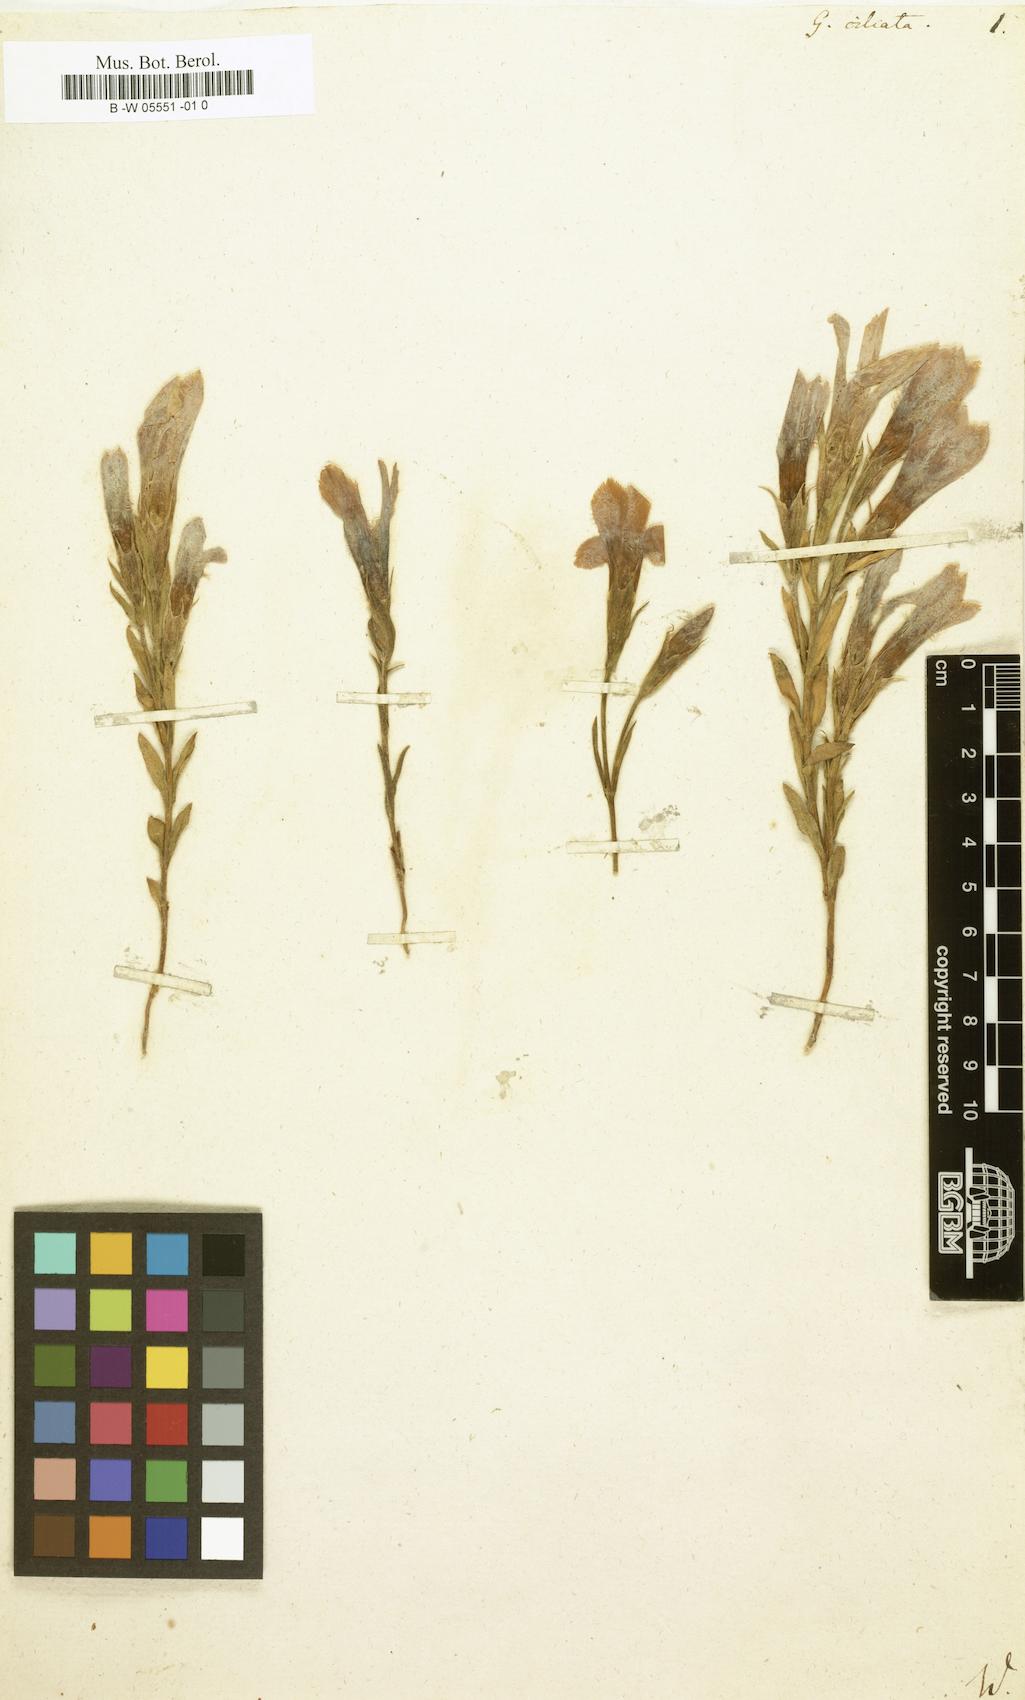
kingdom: Plantae
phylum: Tracheophyta
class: Magnoliopsida
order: Gentianales
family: Gentianaceae
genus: Gentianopsis
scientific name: Gentianopsis detonsa
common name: Fringed-gentian
